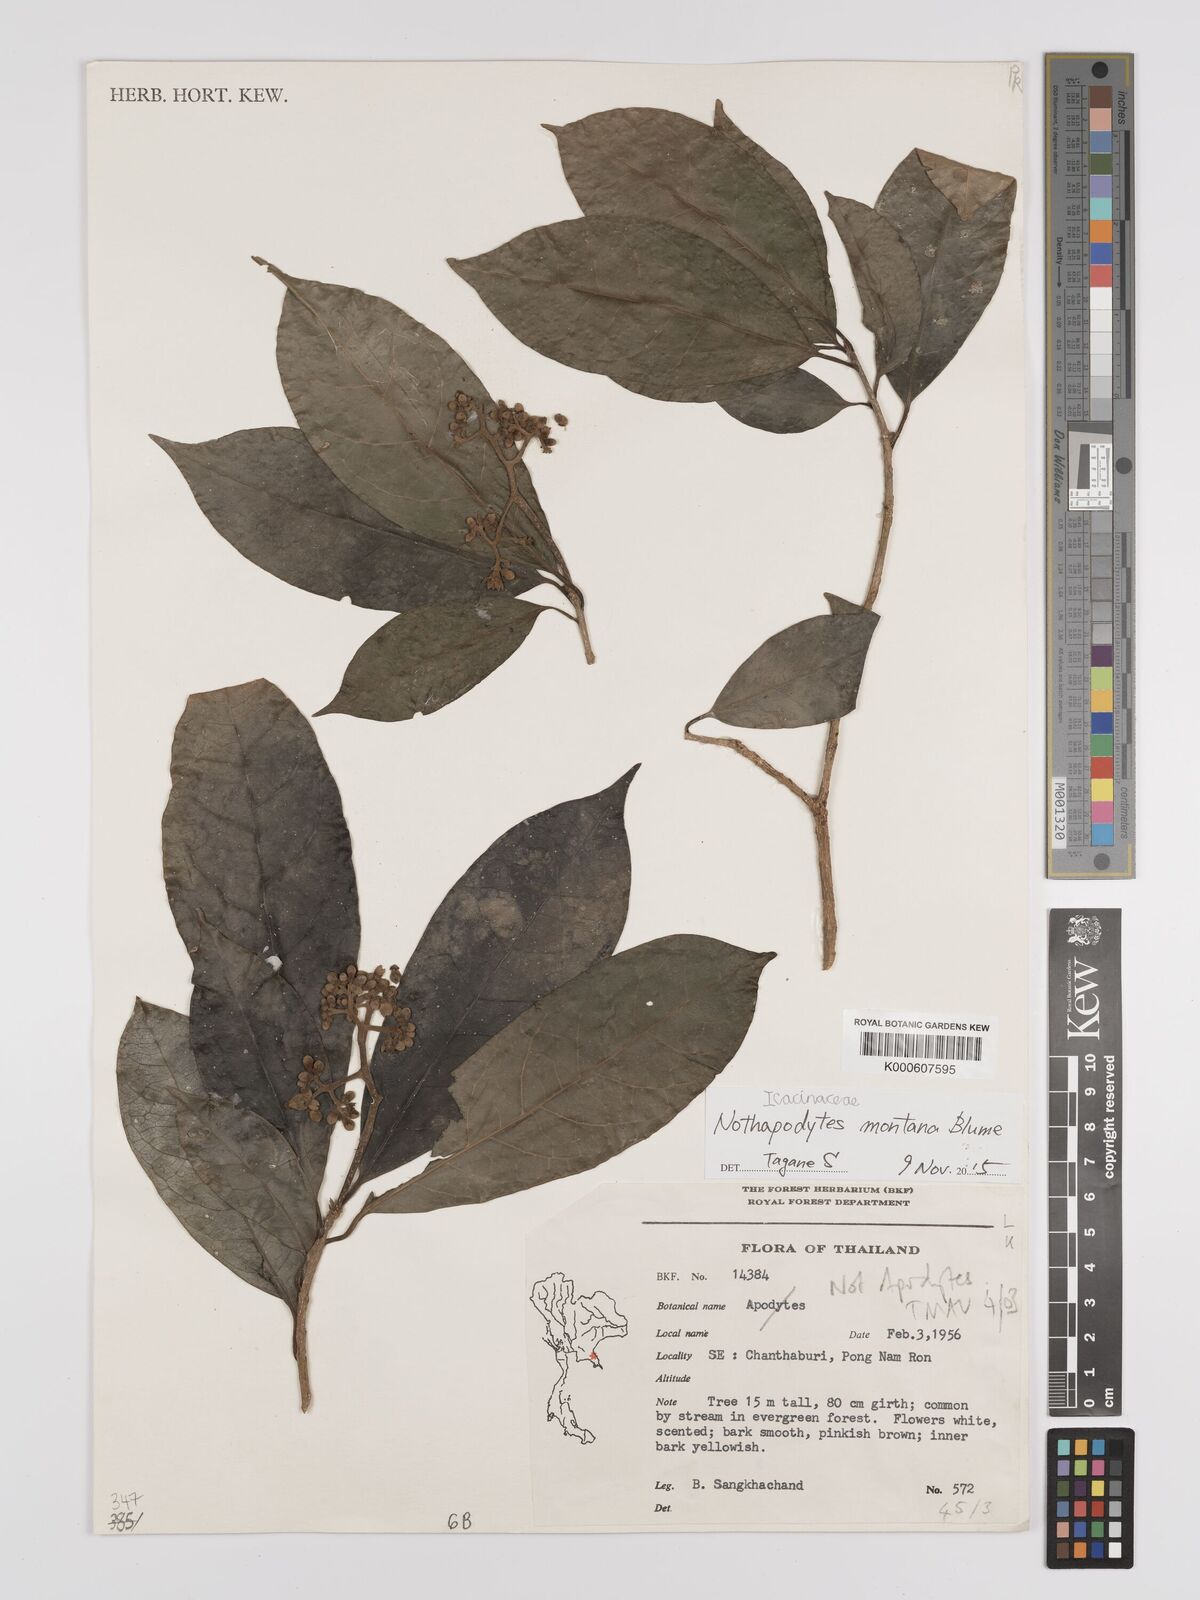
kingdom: Plantae
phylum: Tracheophyta
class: Magnoliopsida
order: Icacinales
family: Icacinaceae
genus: Nothapodytes
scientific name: Nothapodytes montana
